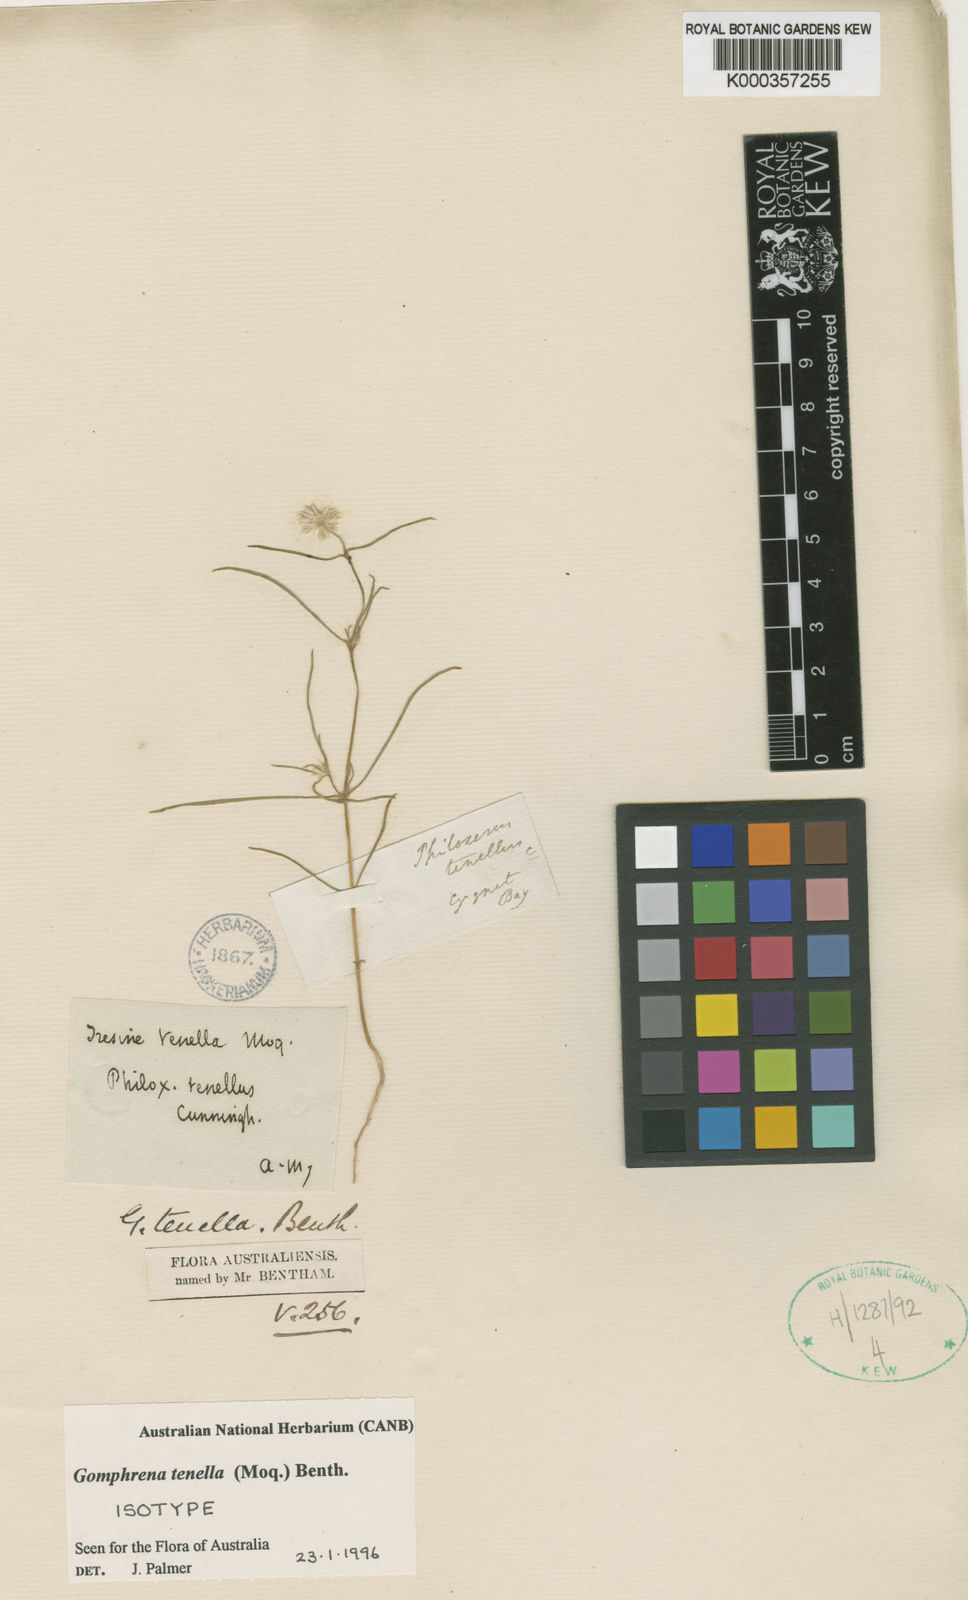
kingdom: Plantae
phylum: Tracheophyta
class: Magnoliopsida
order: Caryophyllales
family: Amaranthaceae
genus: Gomphrena
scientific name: Gomphrena tenella
